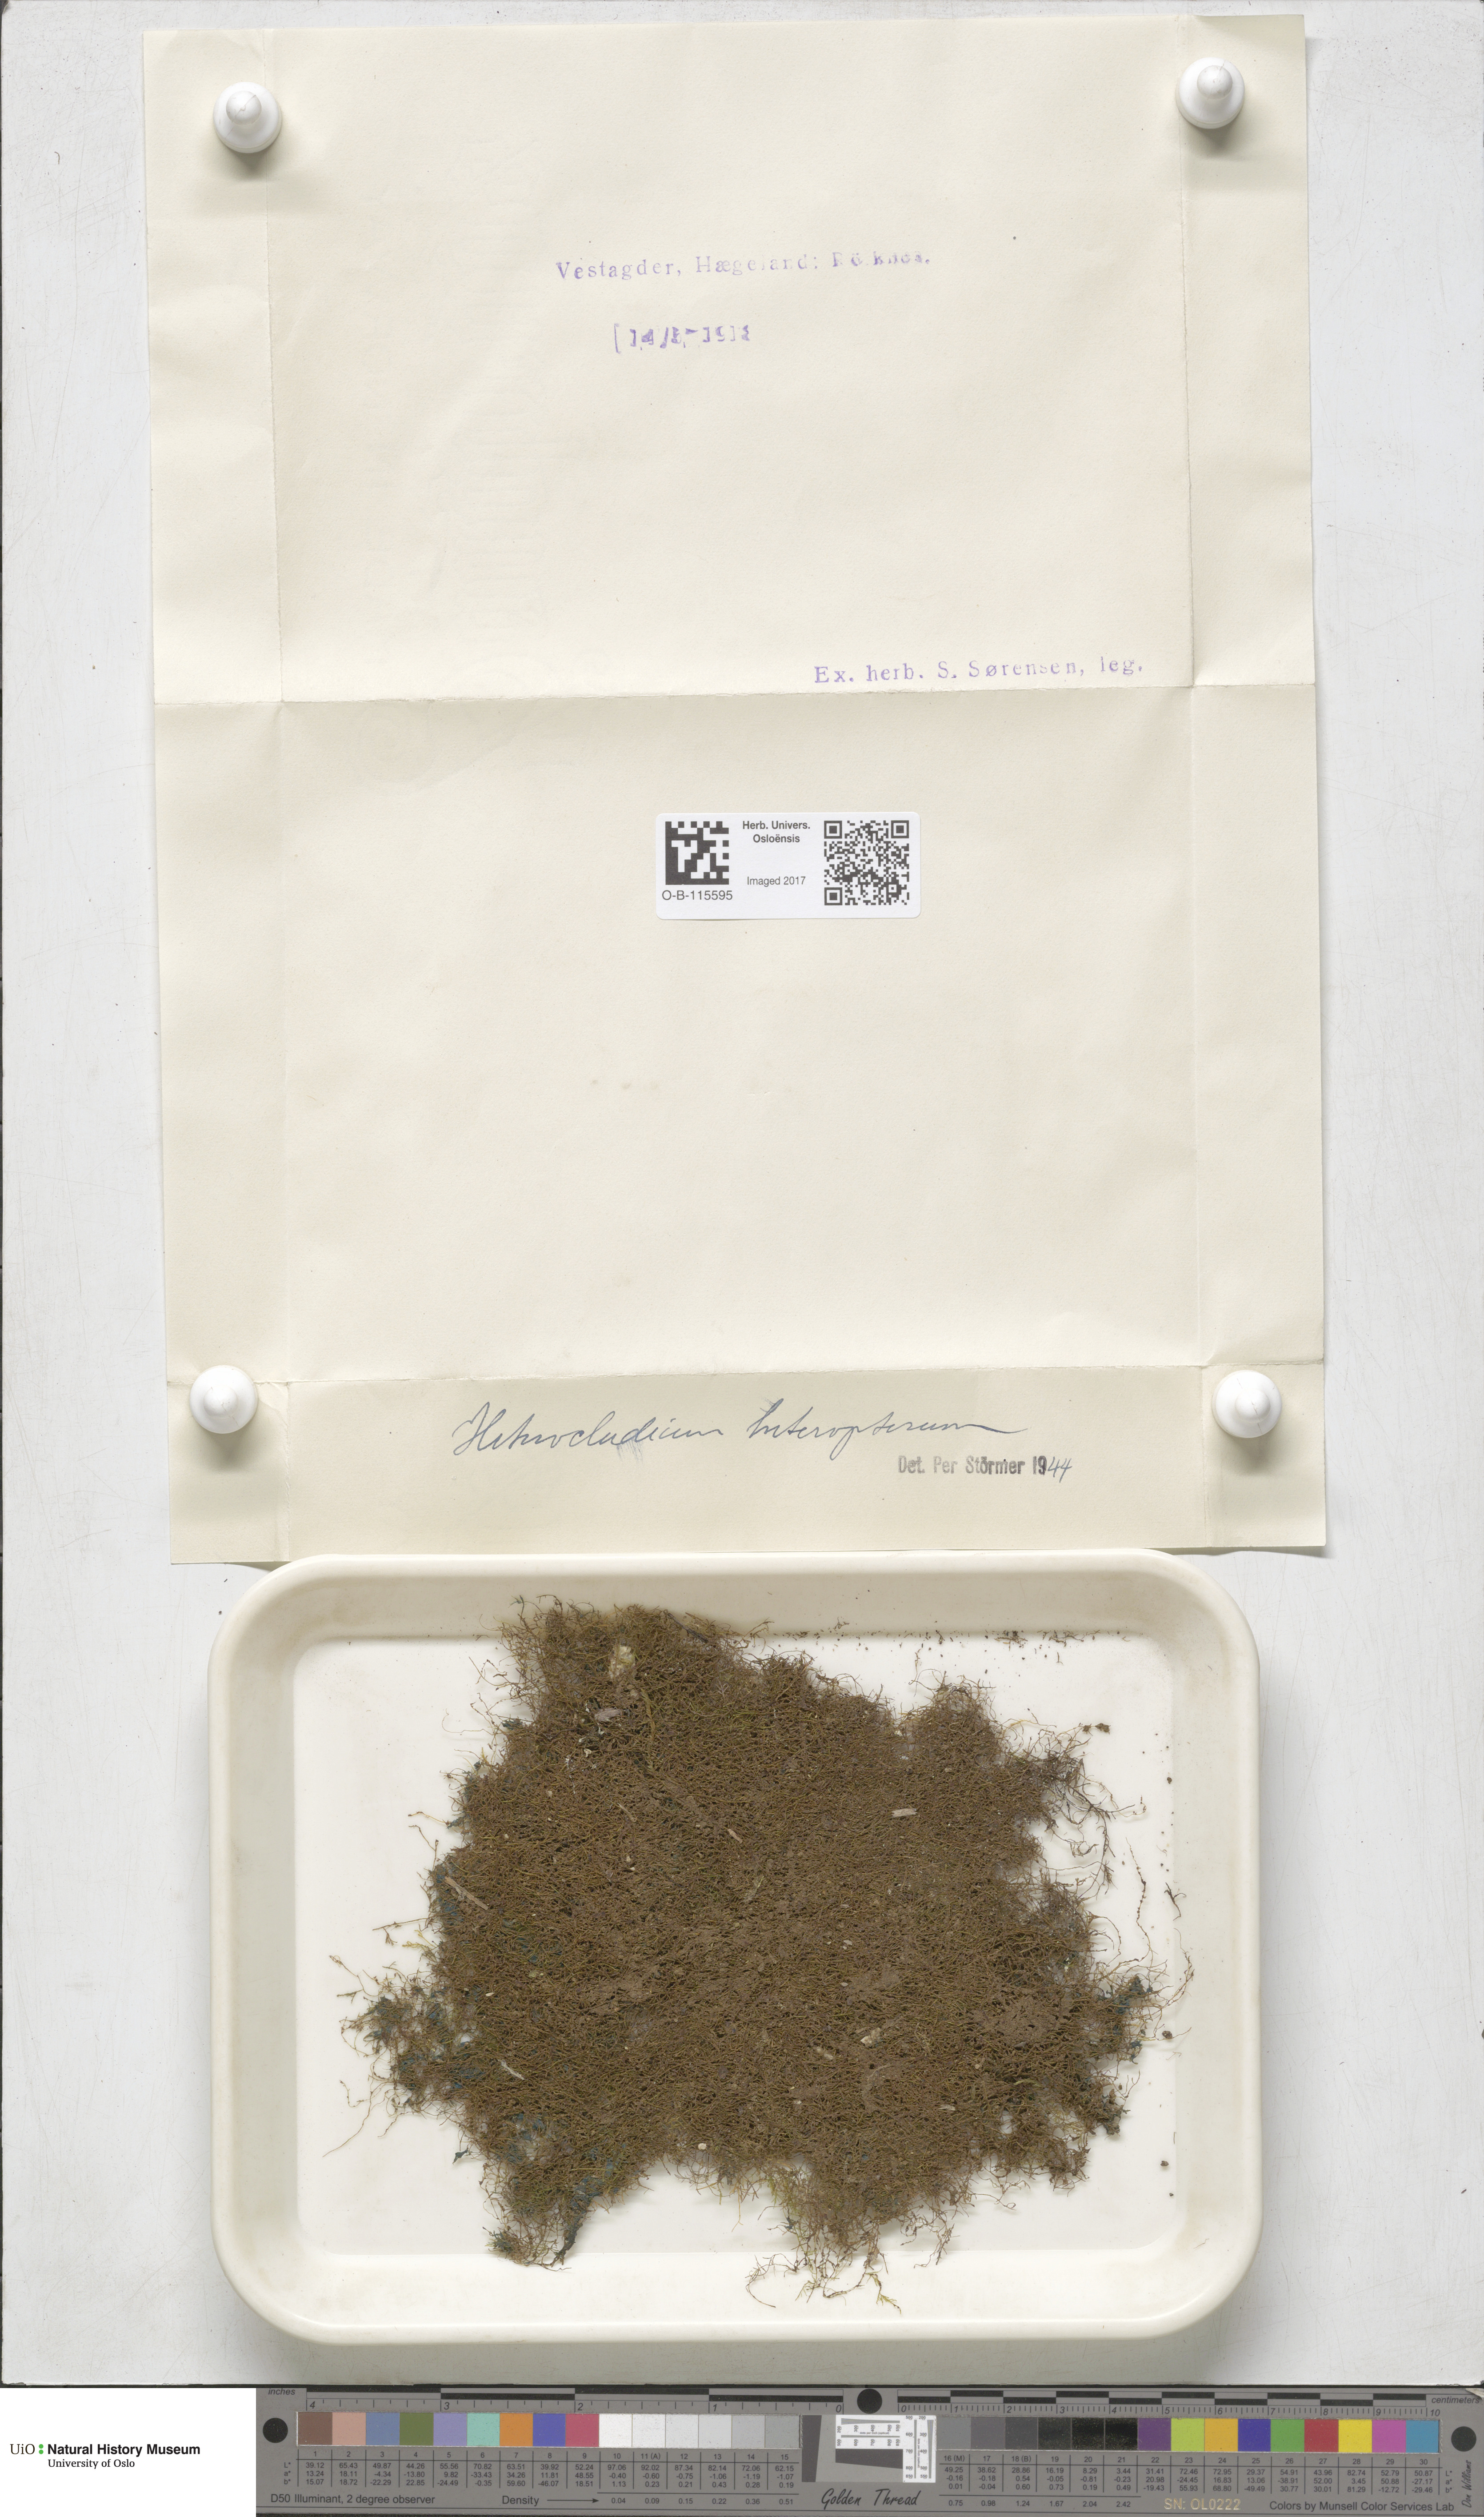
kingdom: Plantae
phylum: Bryophyta
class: Bryopsida
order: Hypnales
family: Lembophyllaceae
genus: Heterocladium
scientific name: Heterocladium heteropterum
